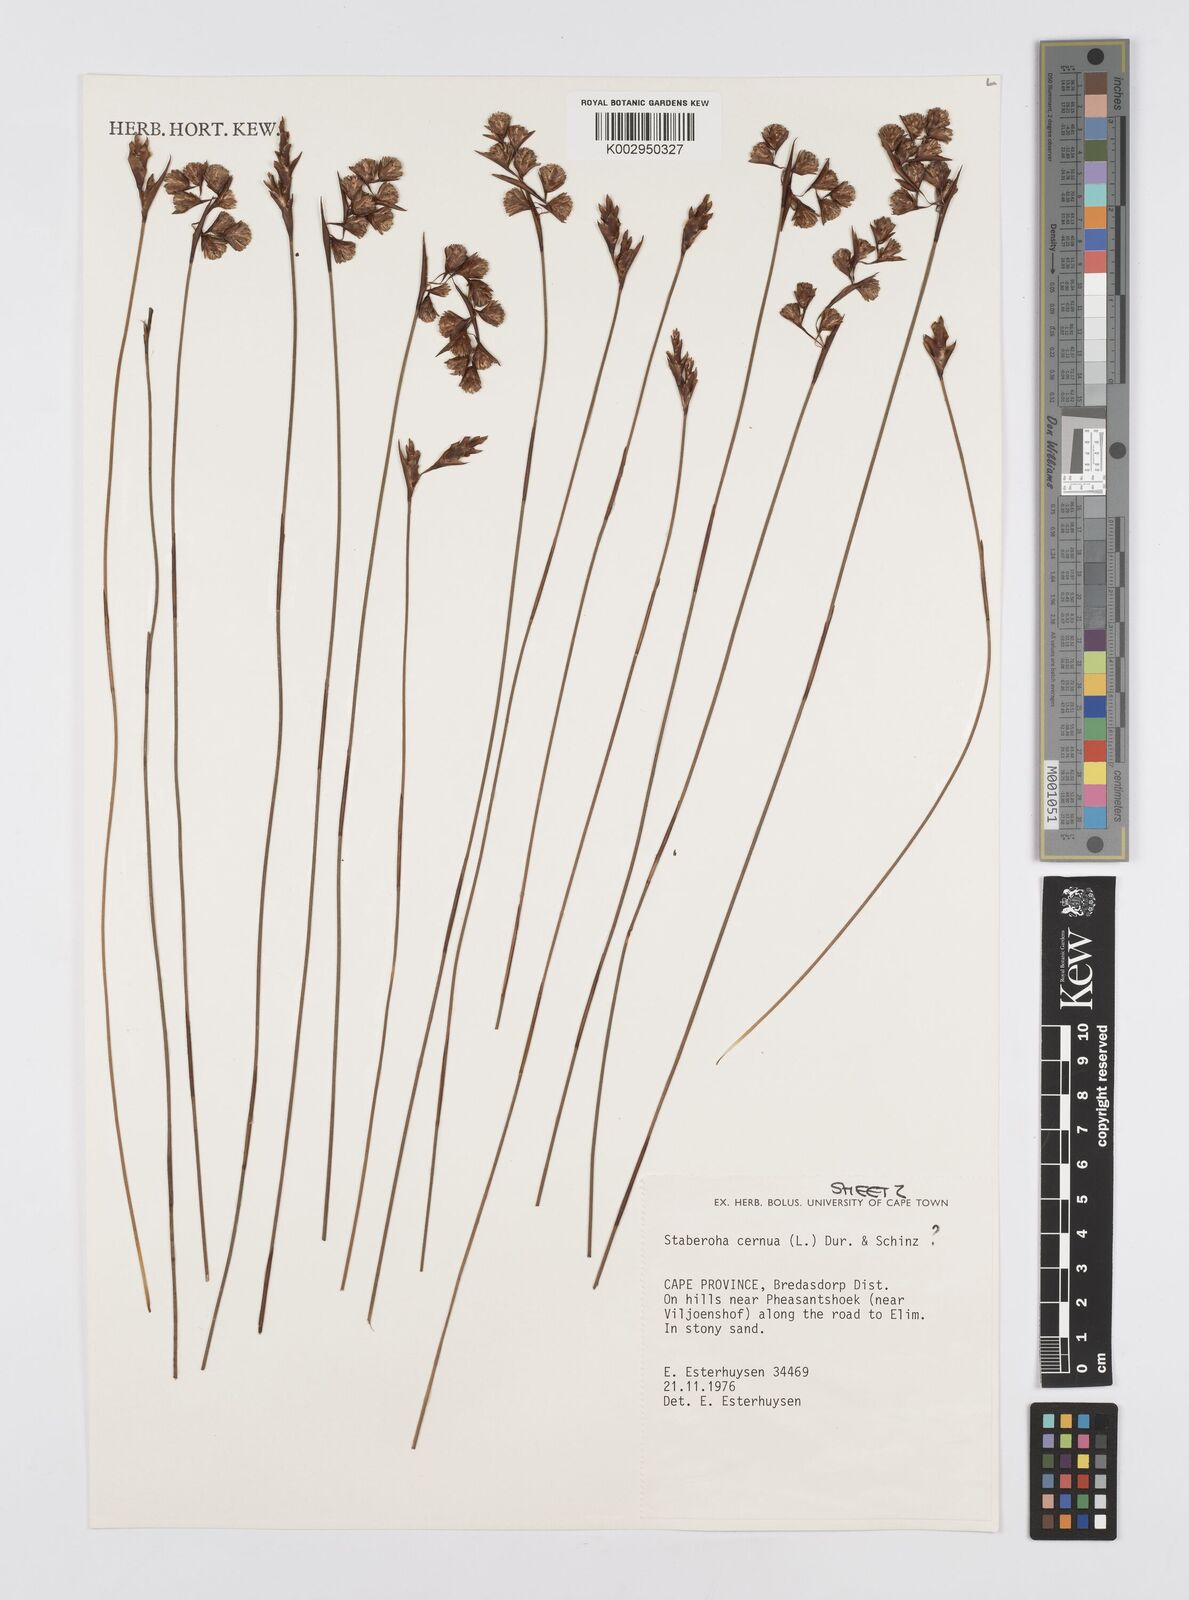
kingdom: Plantae
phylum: Tracheophyta
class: Liliopsida
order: Poales
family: Restionaceae
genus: Staberoha
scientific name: Staberoha cernua
